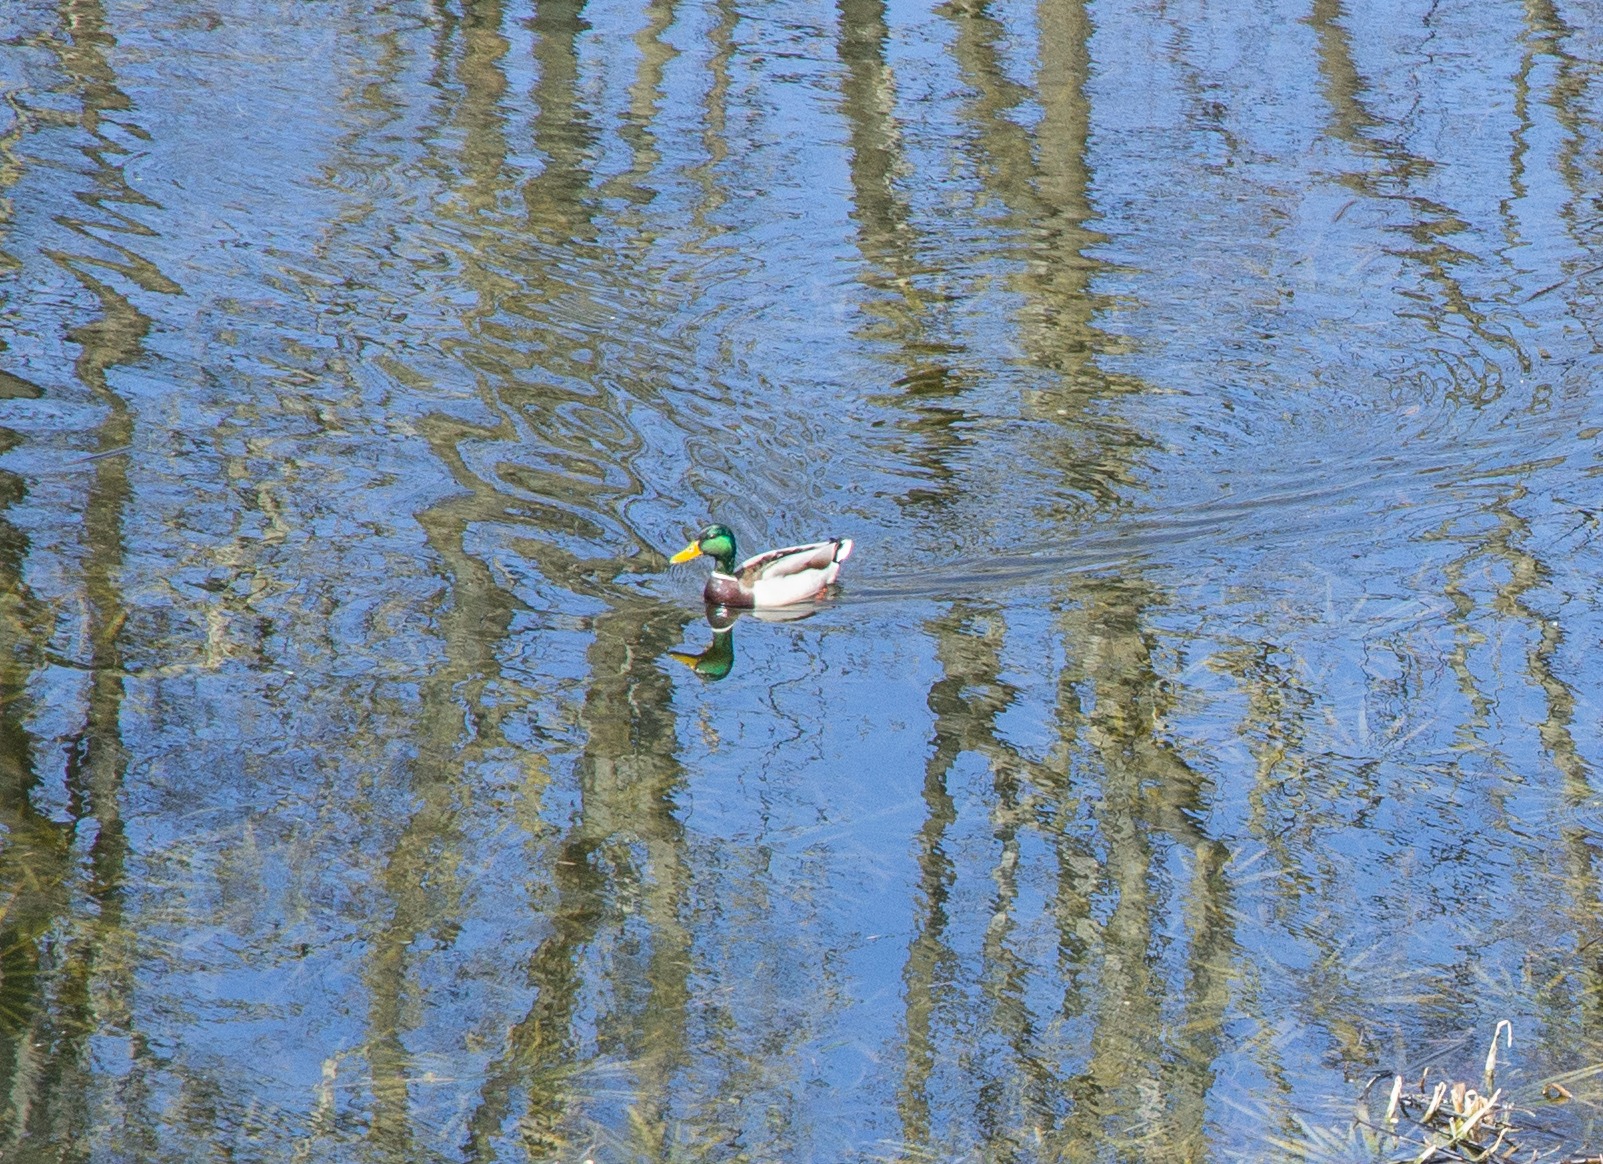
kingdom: Animalia
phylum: Chordata
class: Aves
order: Anseriformes
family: Anatidae
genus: Anas
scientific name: Anas platyrhynchos
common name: Gråand
